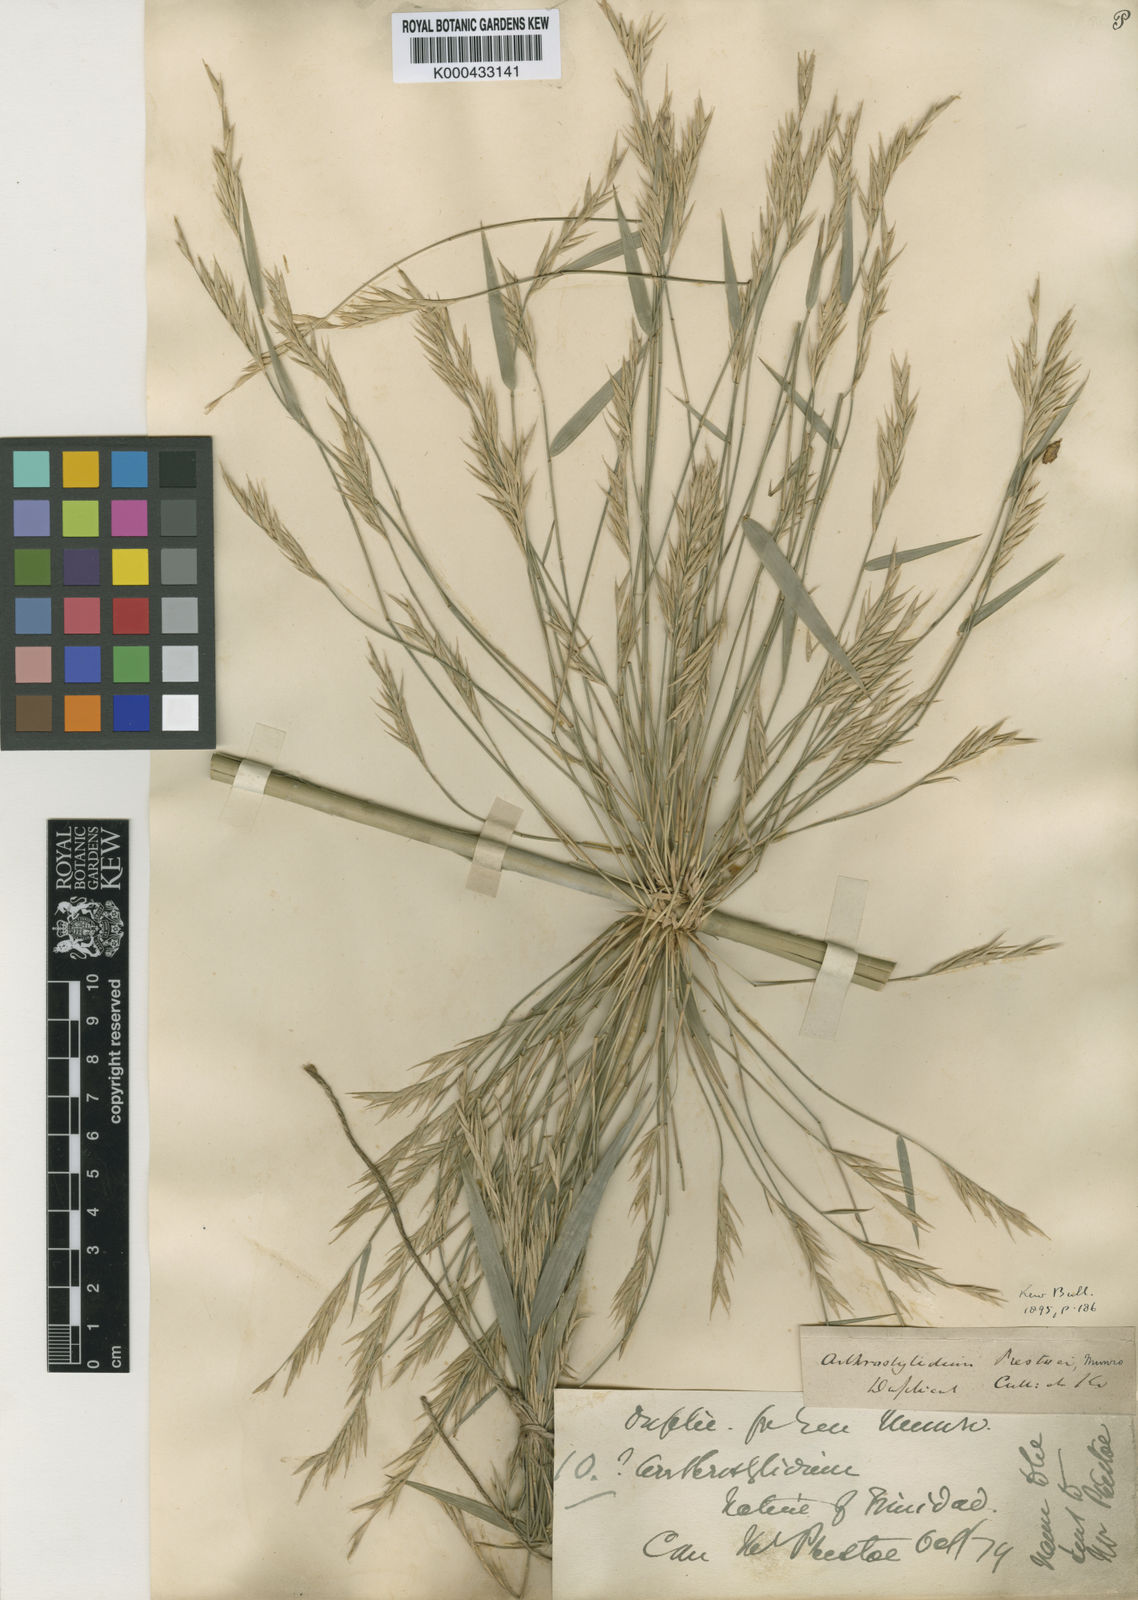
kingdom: Plantae
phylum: Tracheophyta
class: Liliopsida
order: Poales
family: Poaceae
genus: Rhipidocladum
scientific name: Rhipidocladum prestoei
